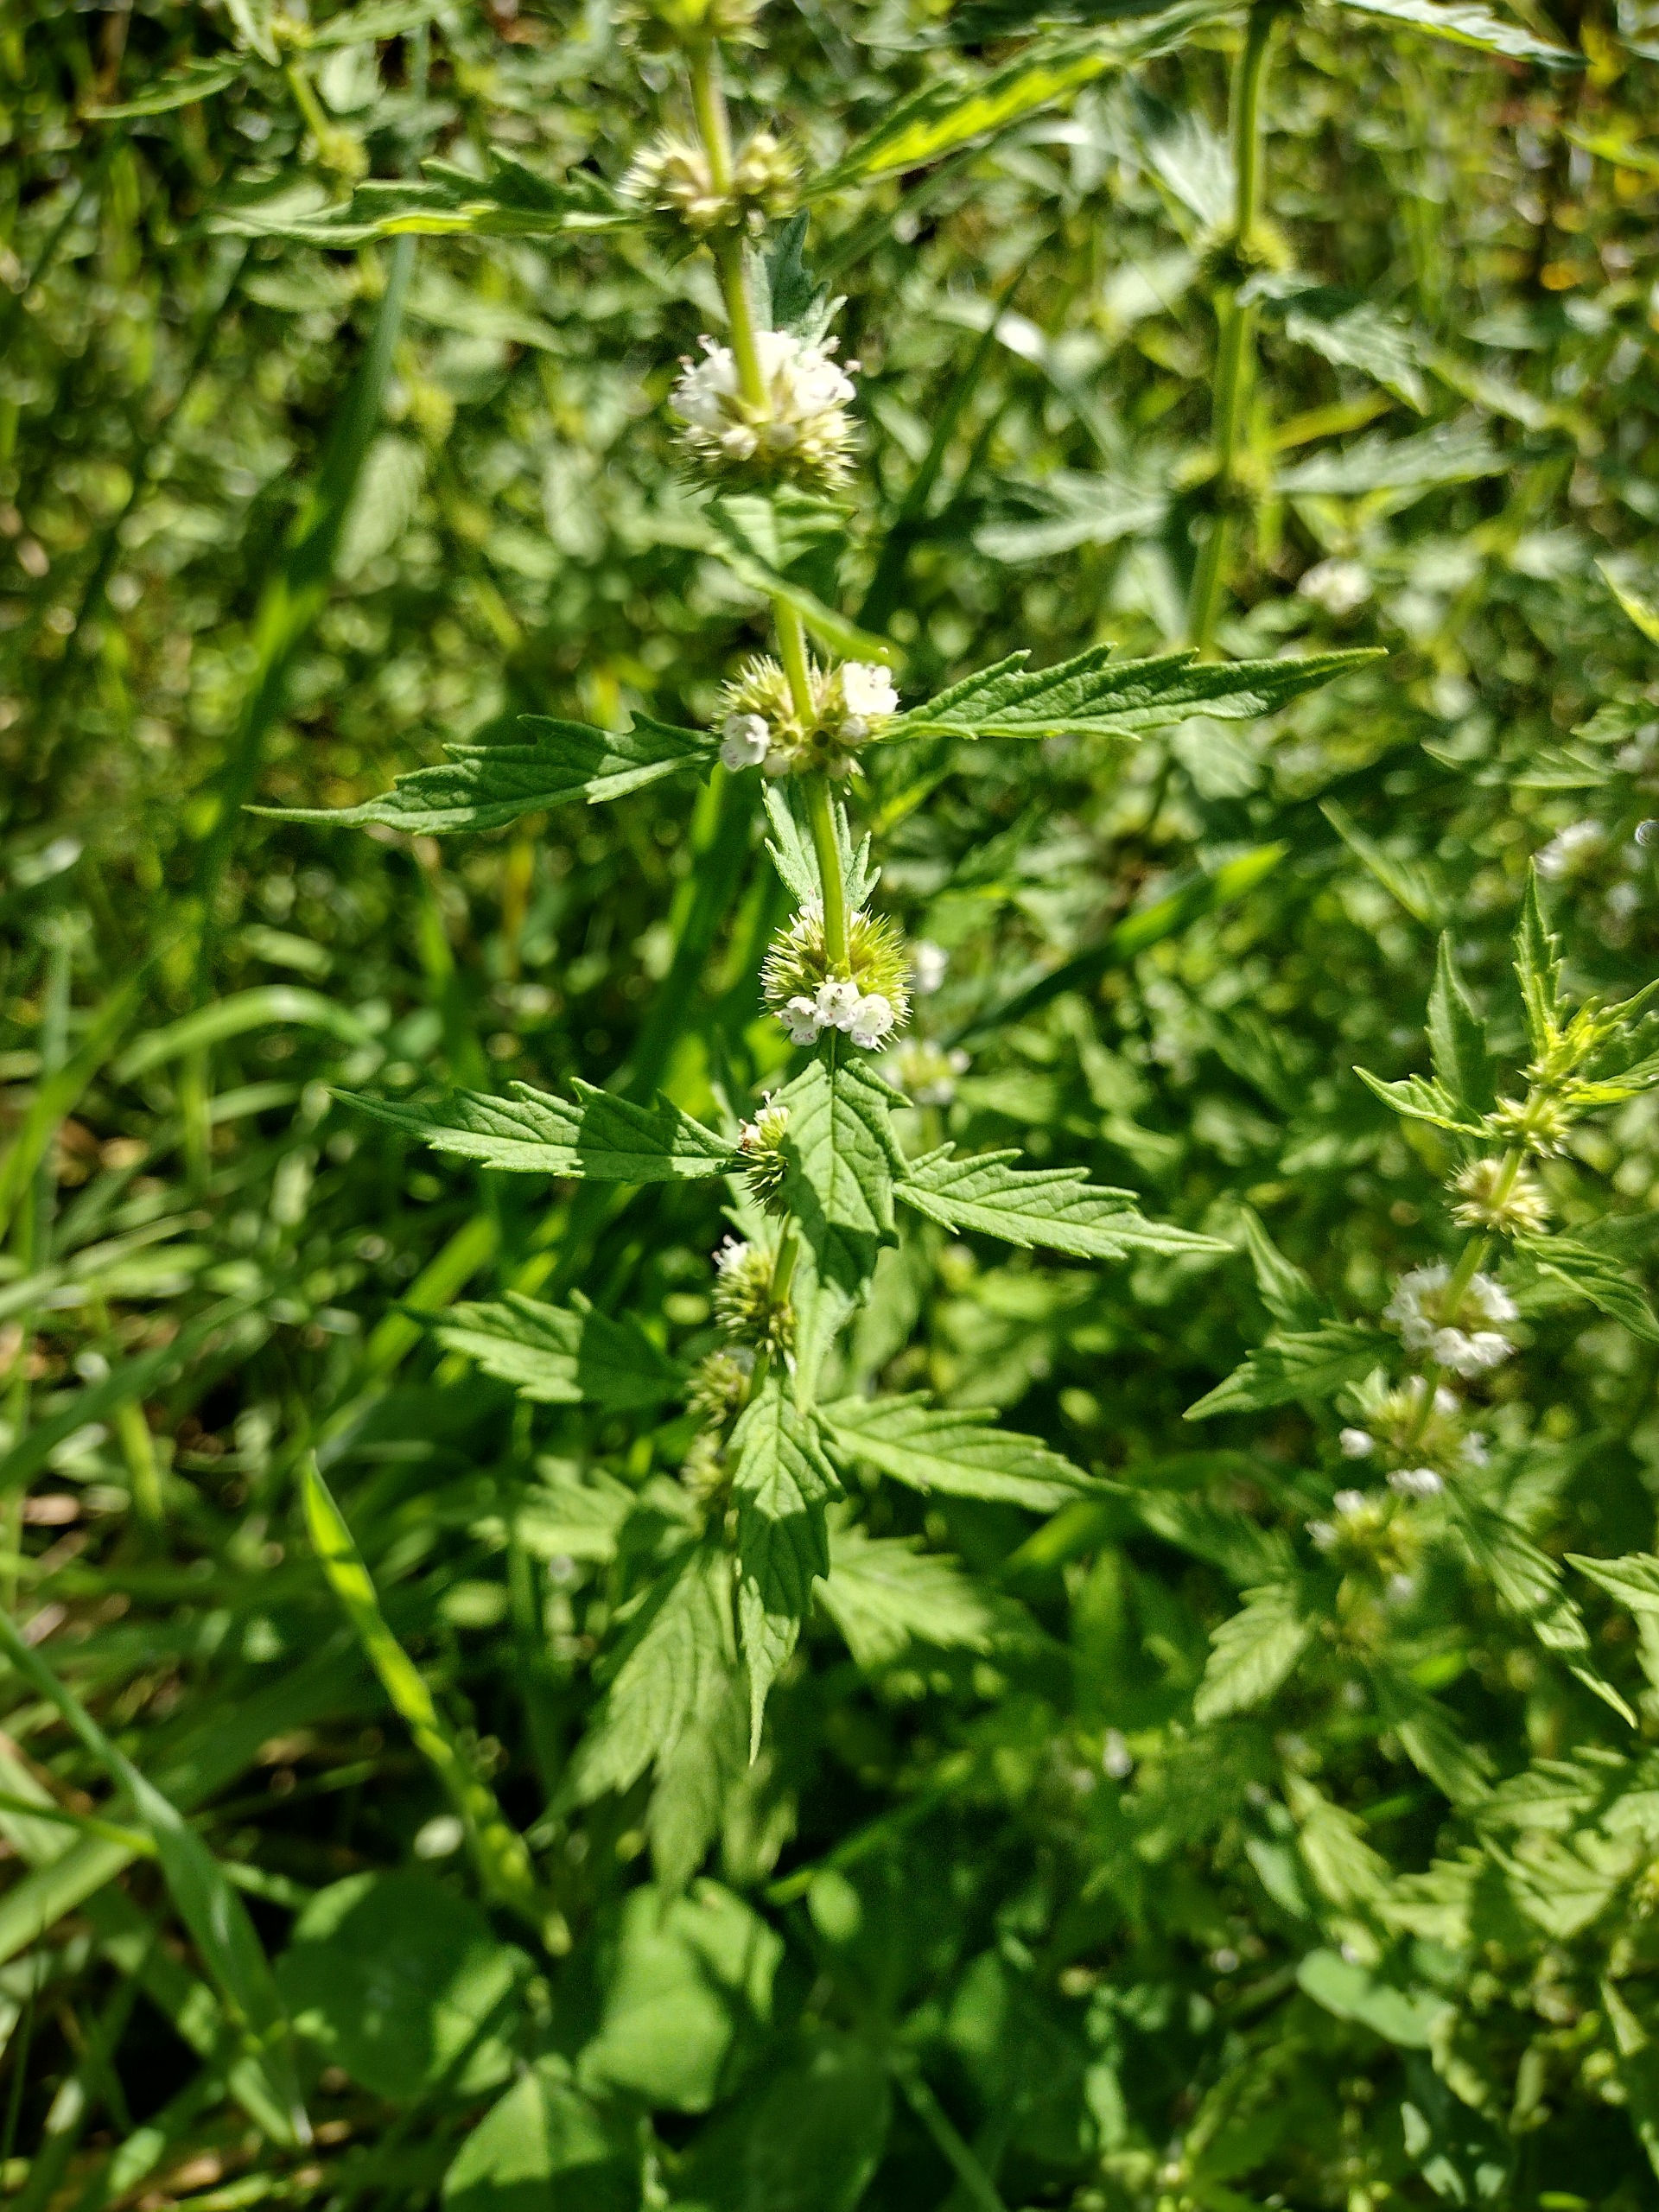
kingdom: Plantae
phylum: Tracheophyta
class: Magnoliopsida
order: Lamiales
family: Lamiaceae
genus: Lycopus
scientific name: Lycopus europaeus
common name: Sværtevæld
